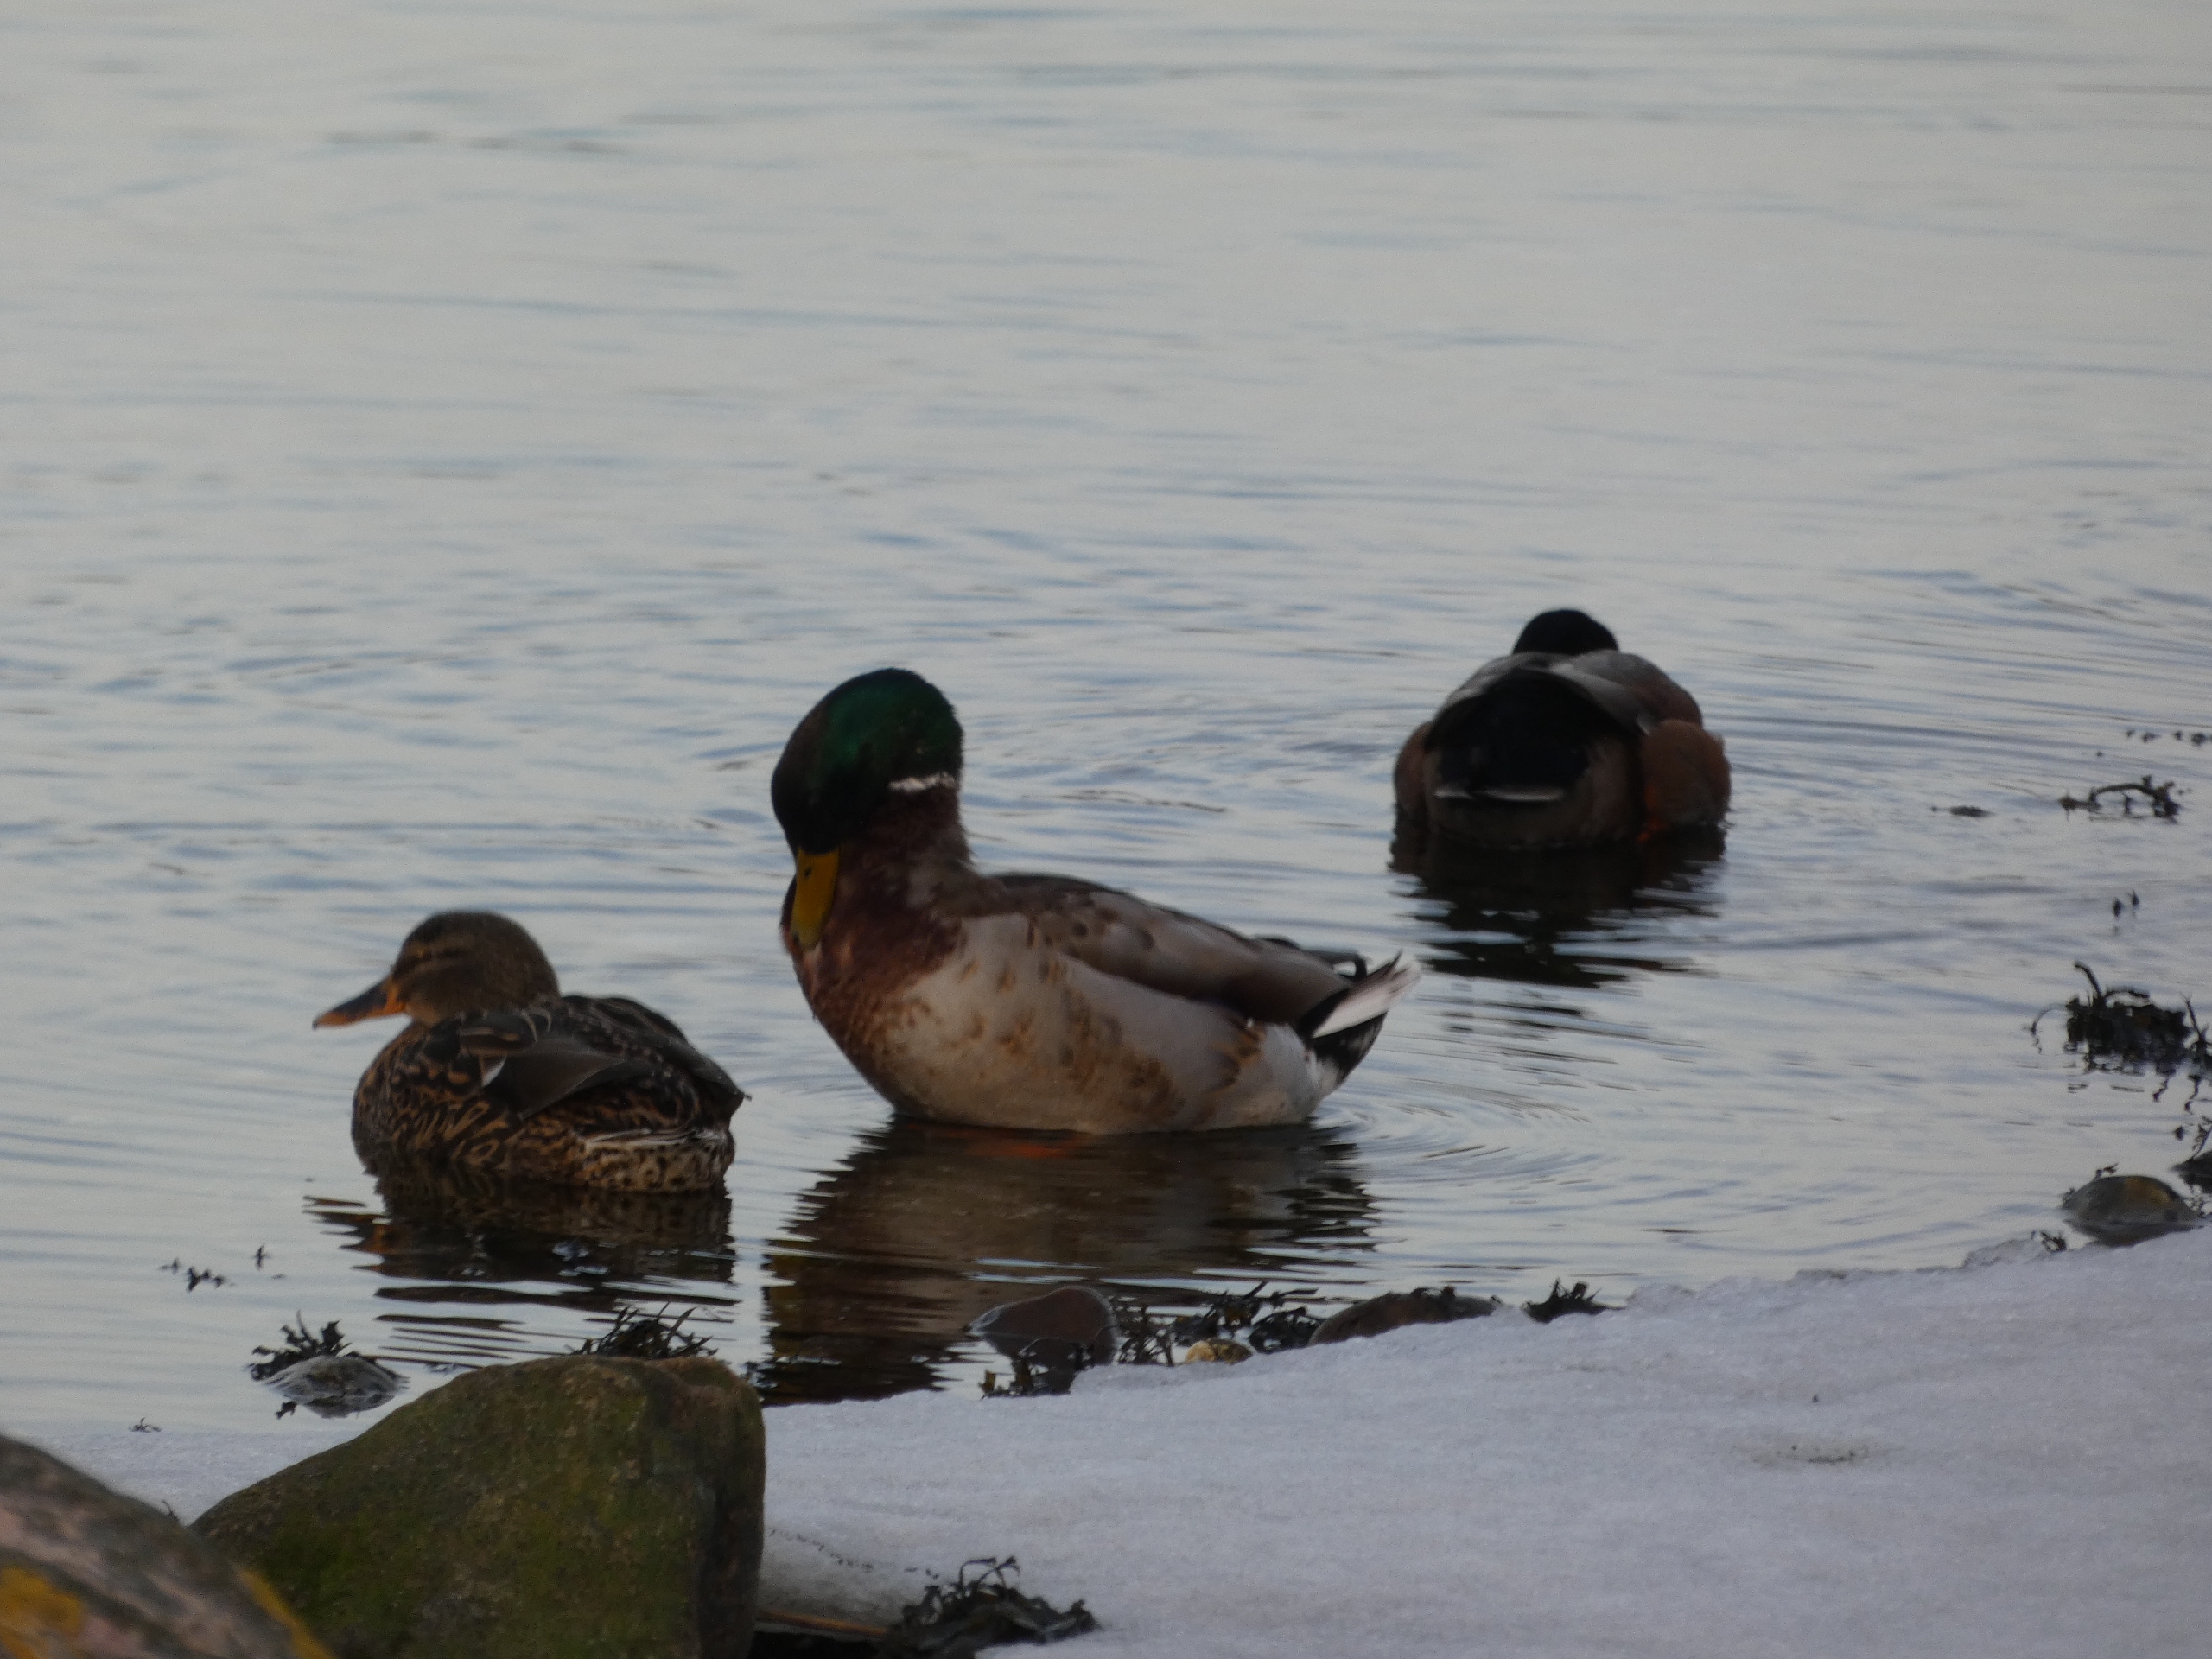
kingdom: Animalia
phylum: Chordata
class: Aves
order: Anseriformes
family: Anatidae
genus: Anas
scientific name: Anas platyrhynchos
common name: Gråand
